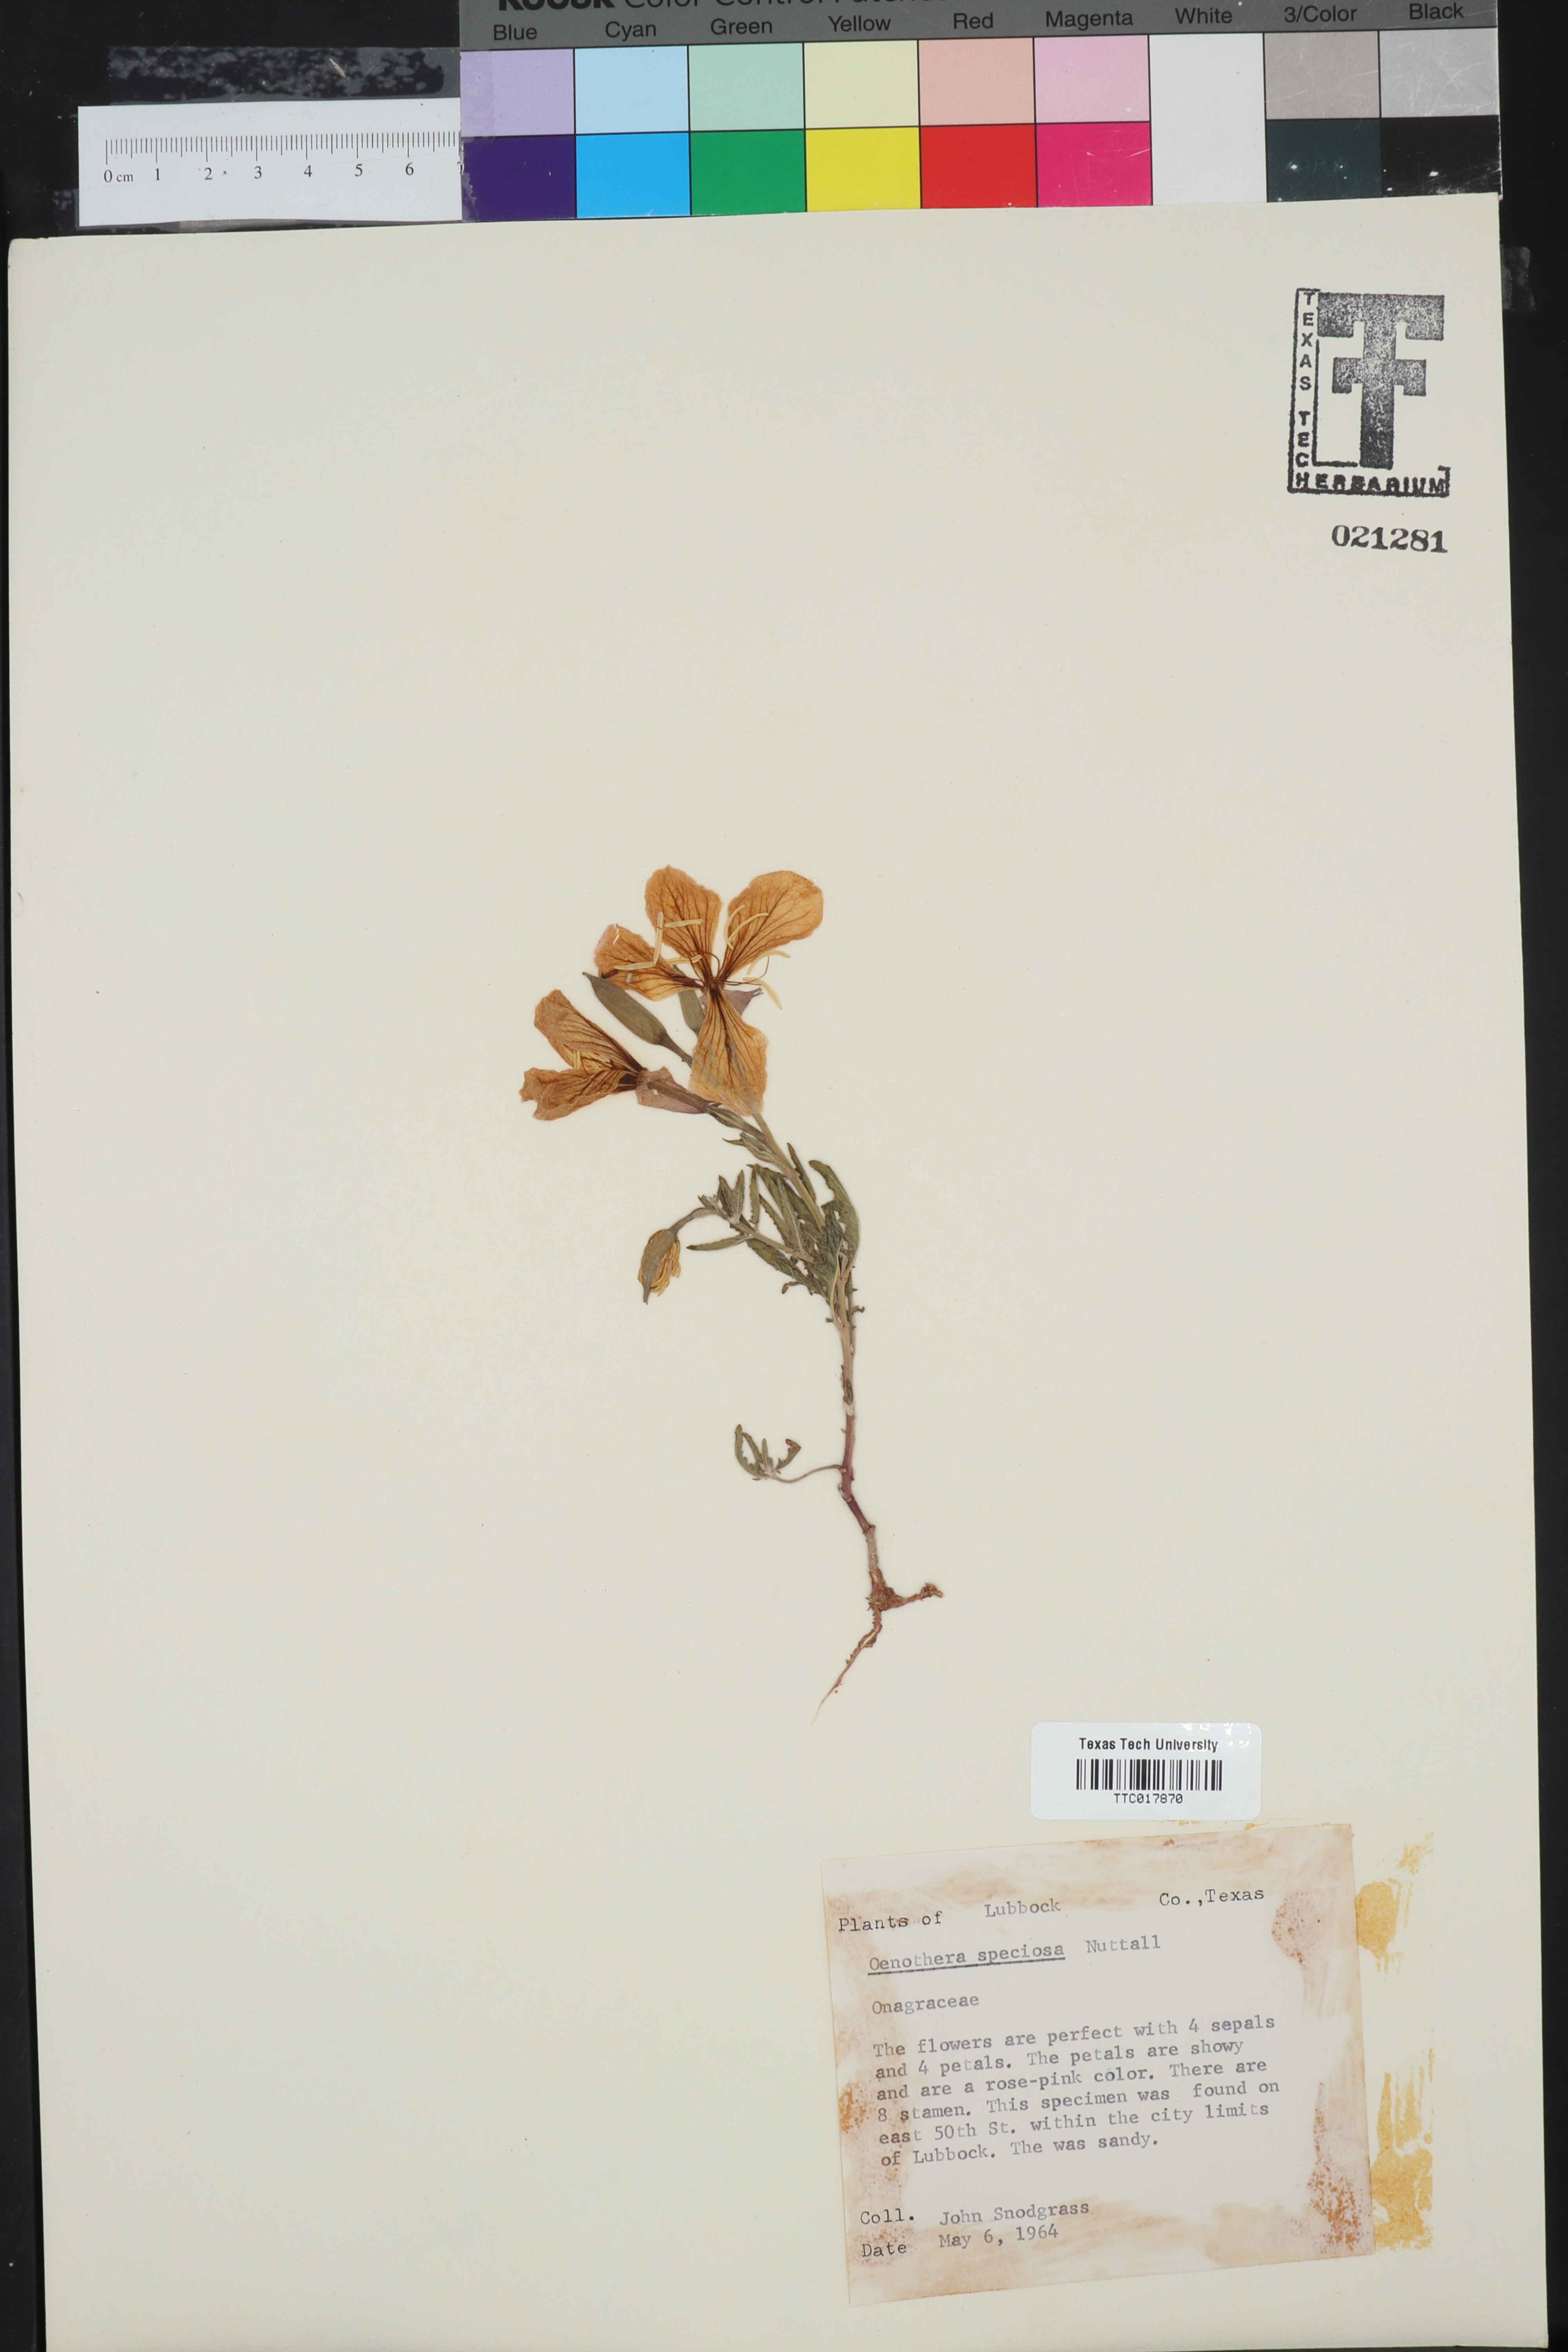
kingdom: Plantae
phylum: Tracheophyta
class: Magnoliopsida
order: Myrtales
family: Onagraceae
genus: Oenothera
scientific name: Oenothera speciosa
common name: White evening-primrose
